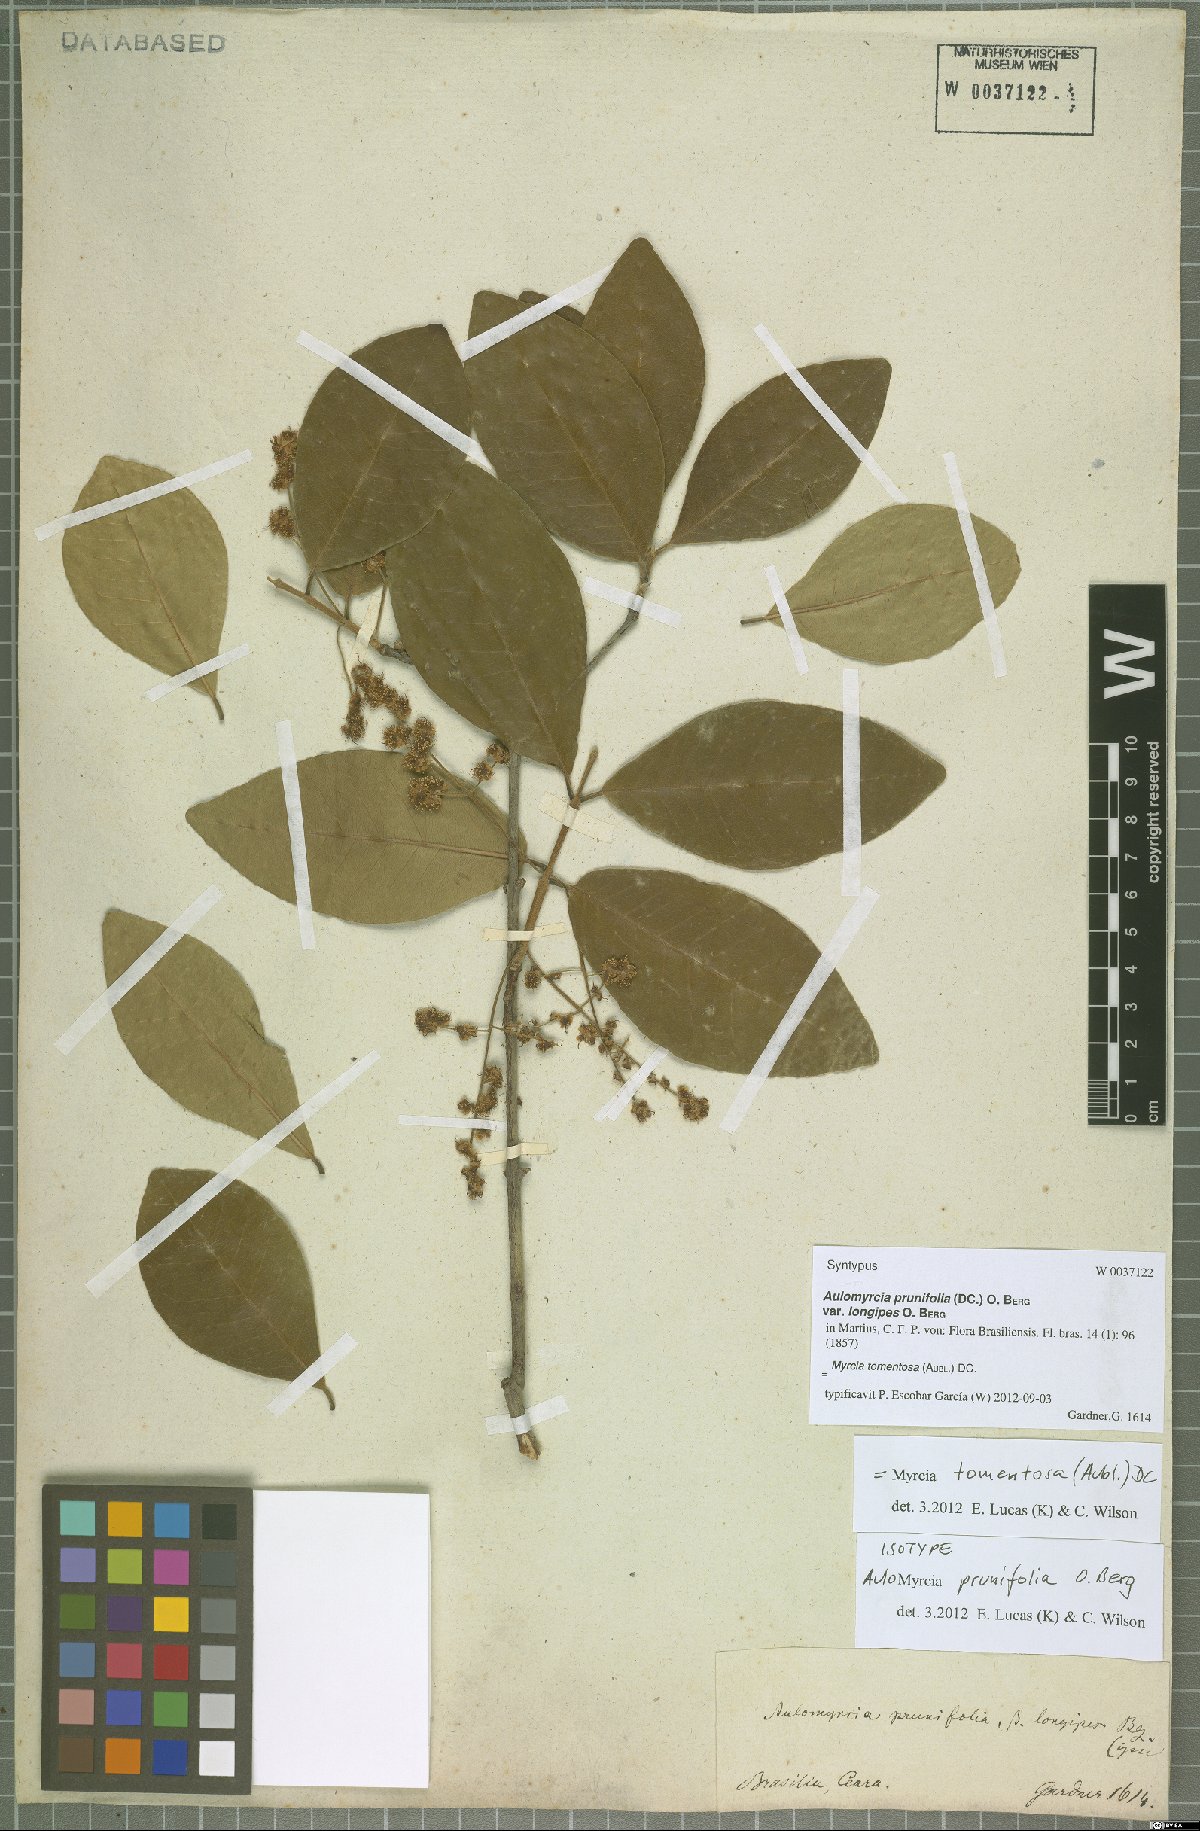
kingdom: Plantae
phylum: Tracheophyta
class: Magnoliopsida
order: Myrtales
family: Myrtaceae
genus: Myrcia
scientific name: Myrcia tomentosa
